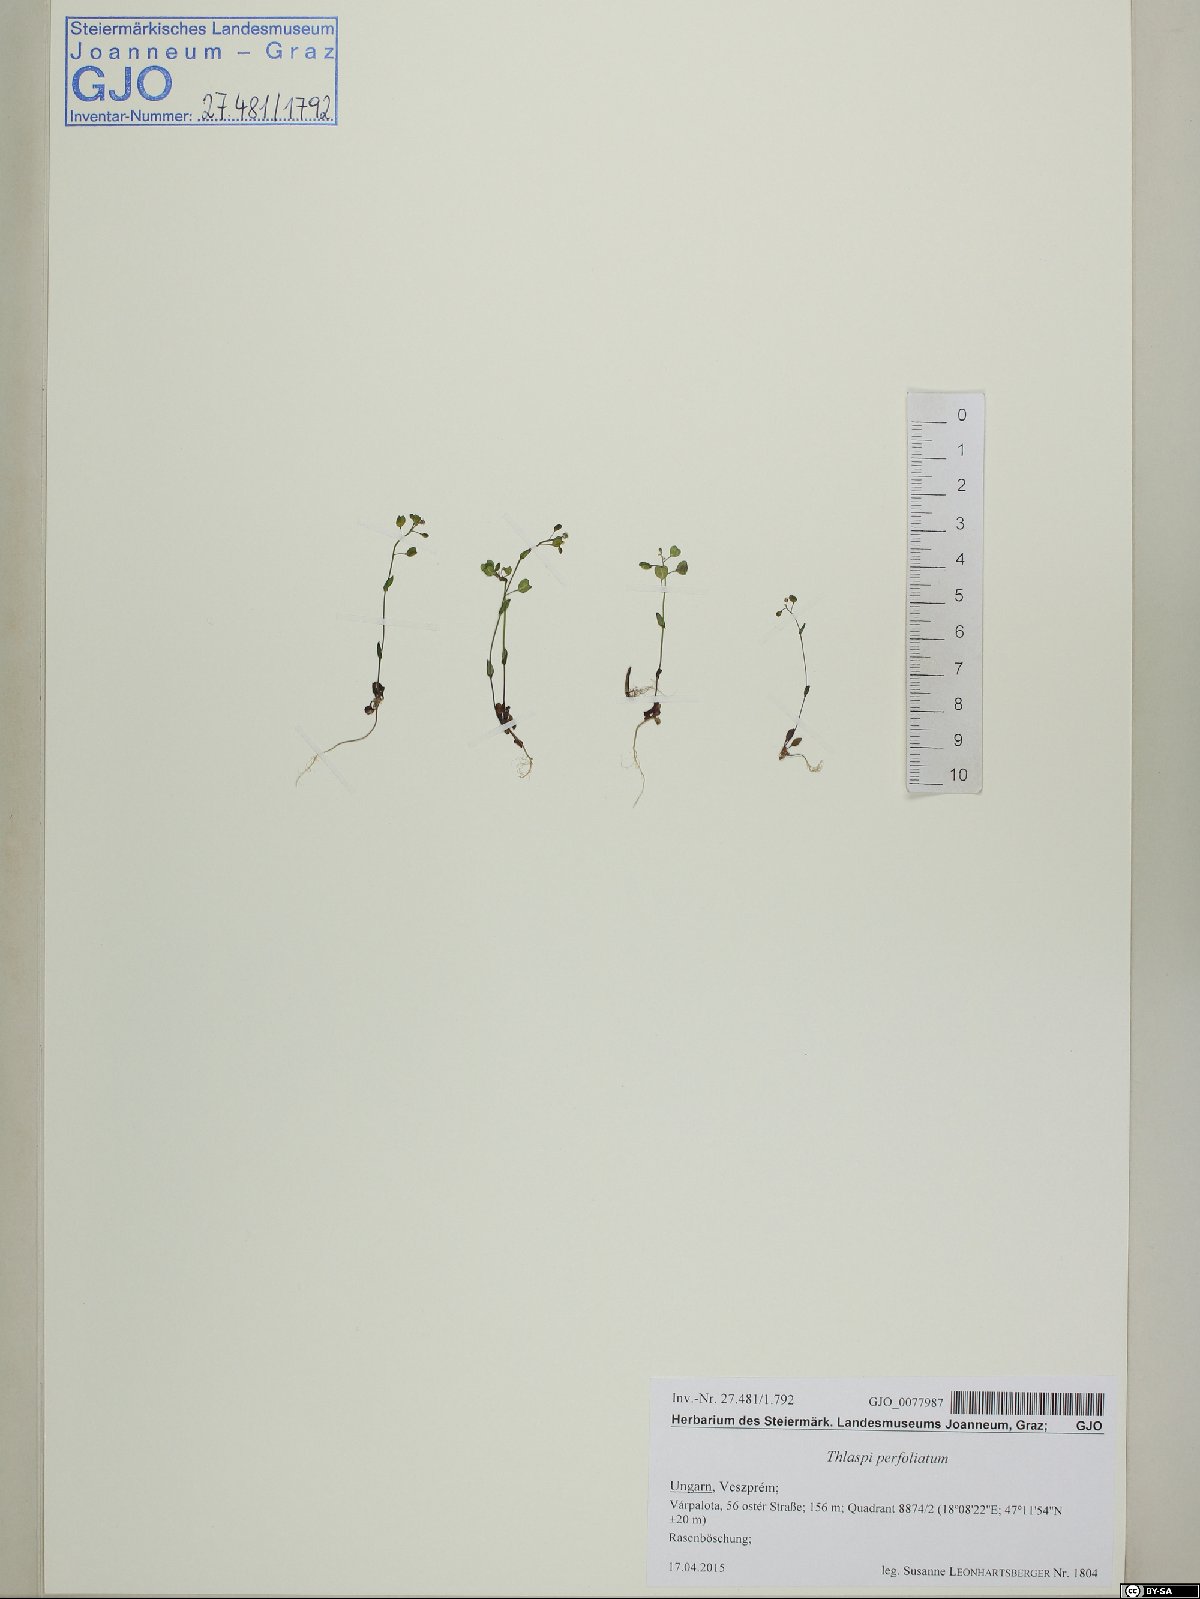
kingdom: Plantae
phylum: Tracheophyta
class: Magnoliopsida
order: Brassicales
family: Brassicaceae
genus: Noccaea
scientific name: Noccaea perfoliata
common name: Perfoliate pennycress
